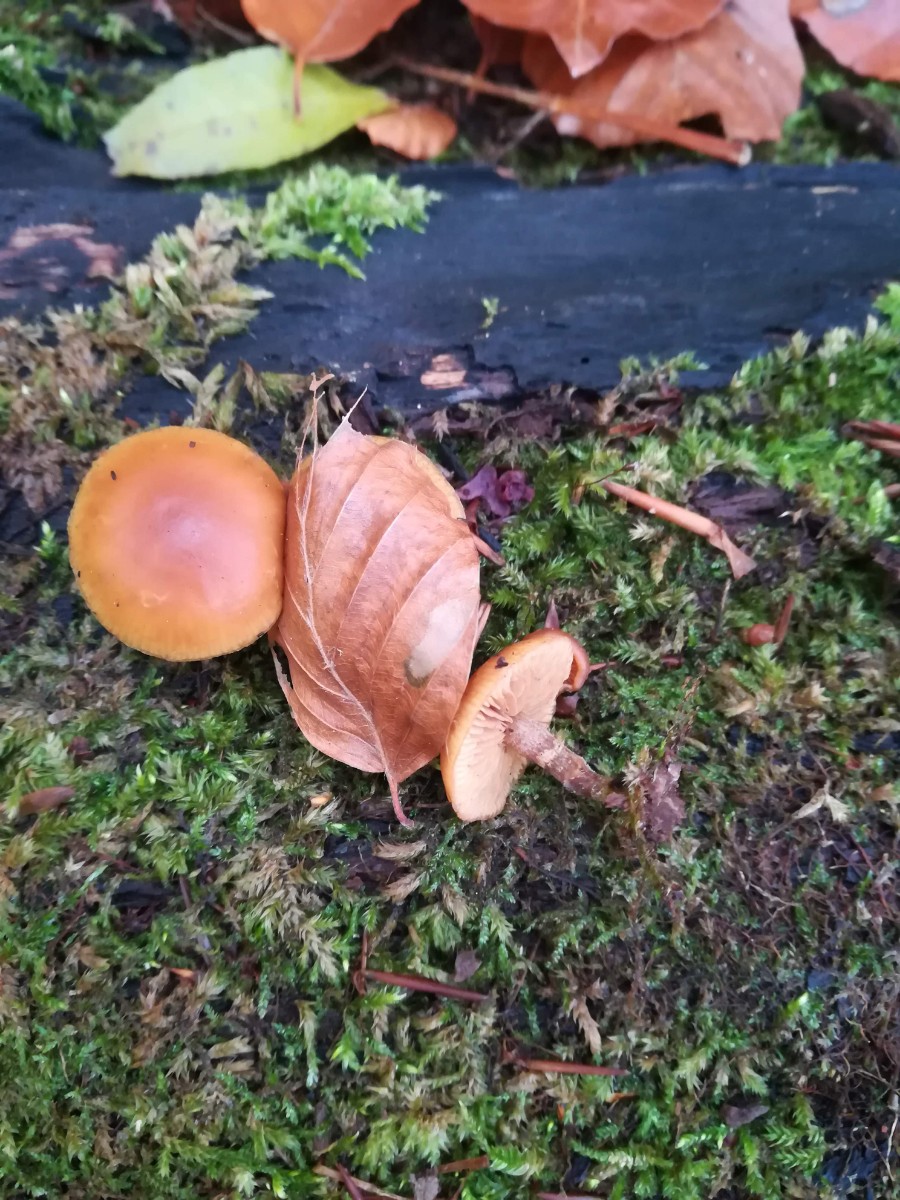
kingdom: Fungi
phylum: Basidiomycota
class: Agaricomycetes
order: Agaricales
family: Hymenogastraceae
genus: Galerina
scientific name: Galerina marginata
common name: randbæltet hjelmhat
